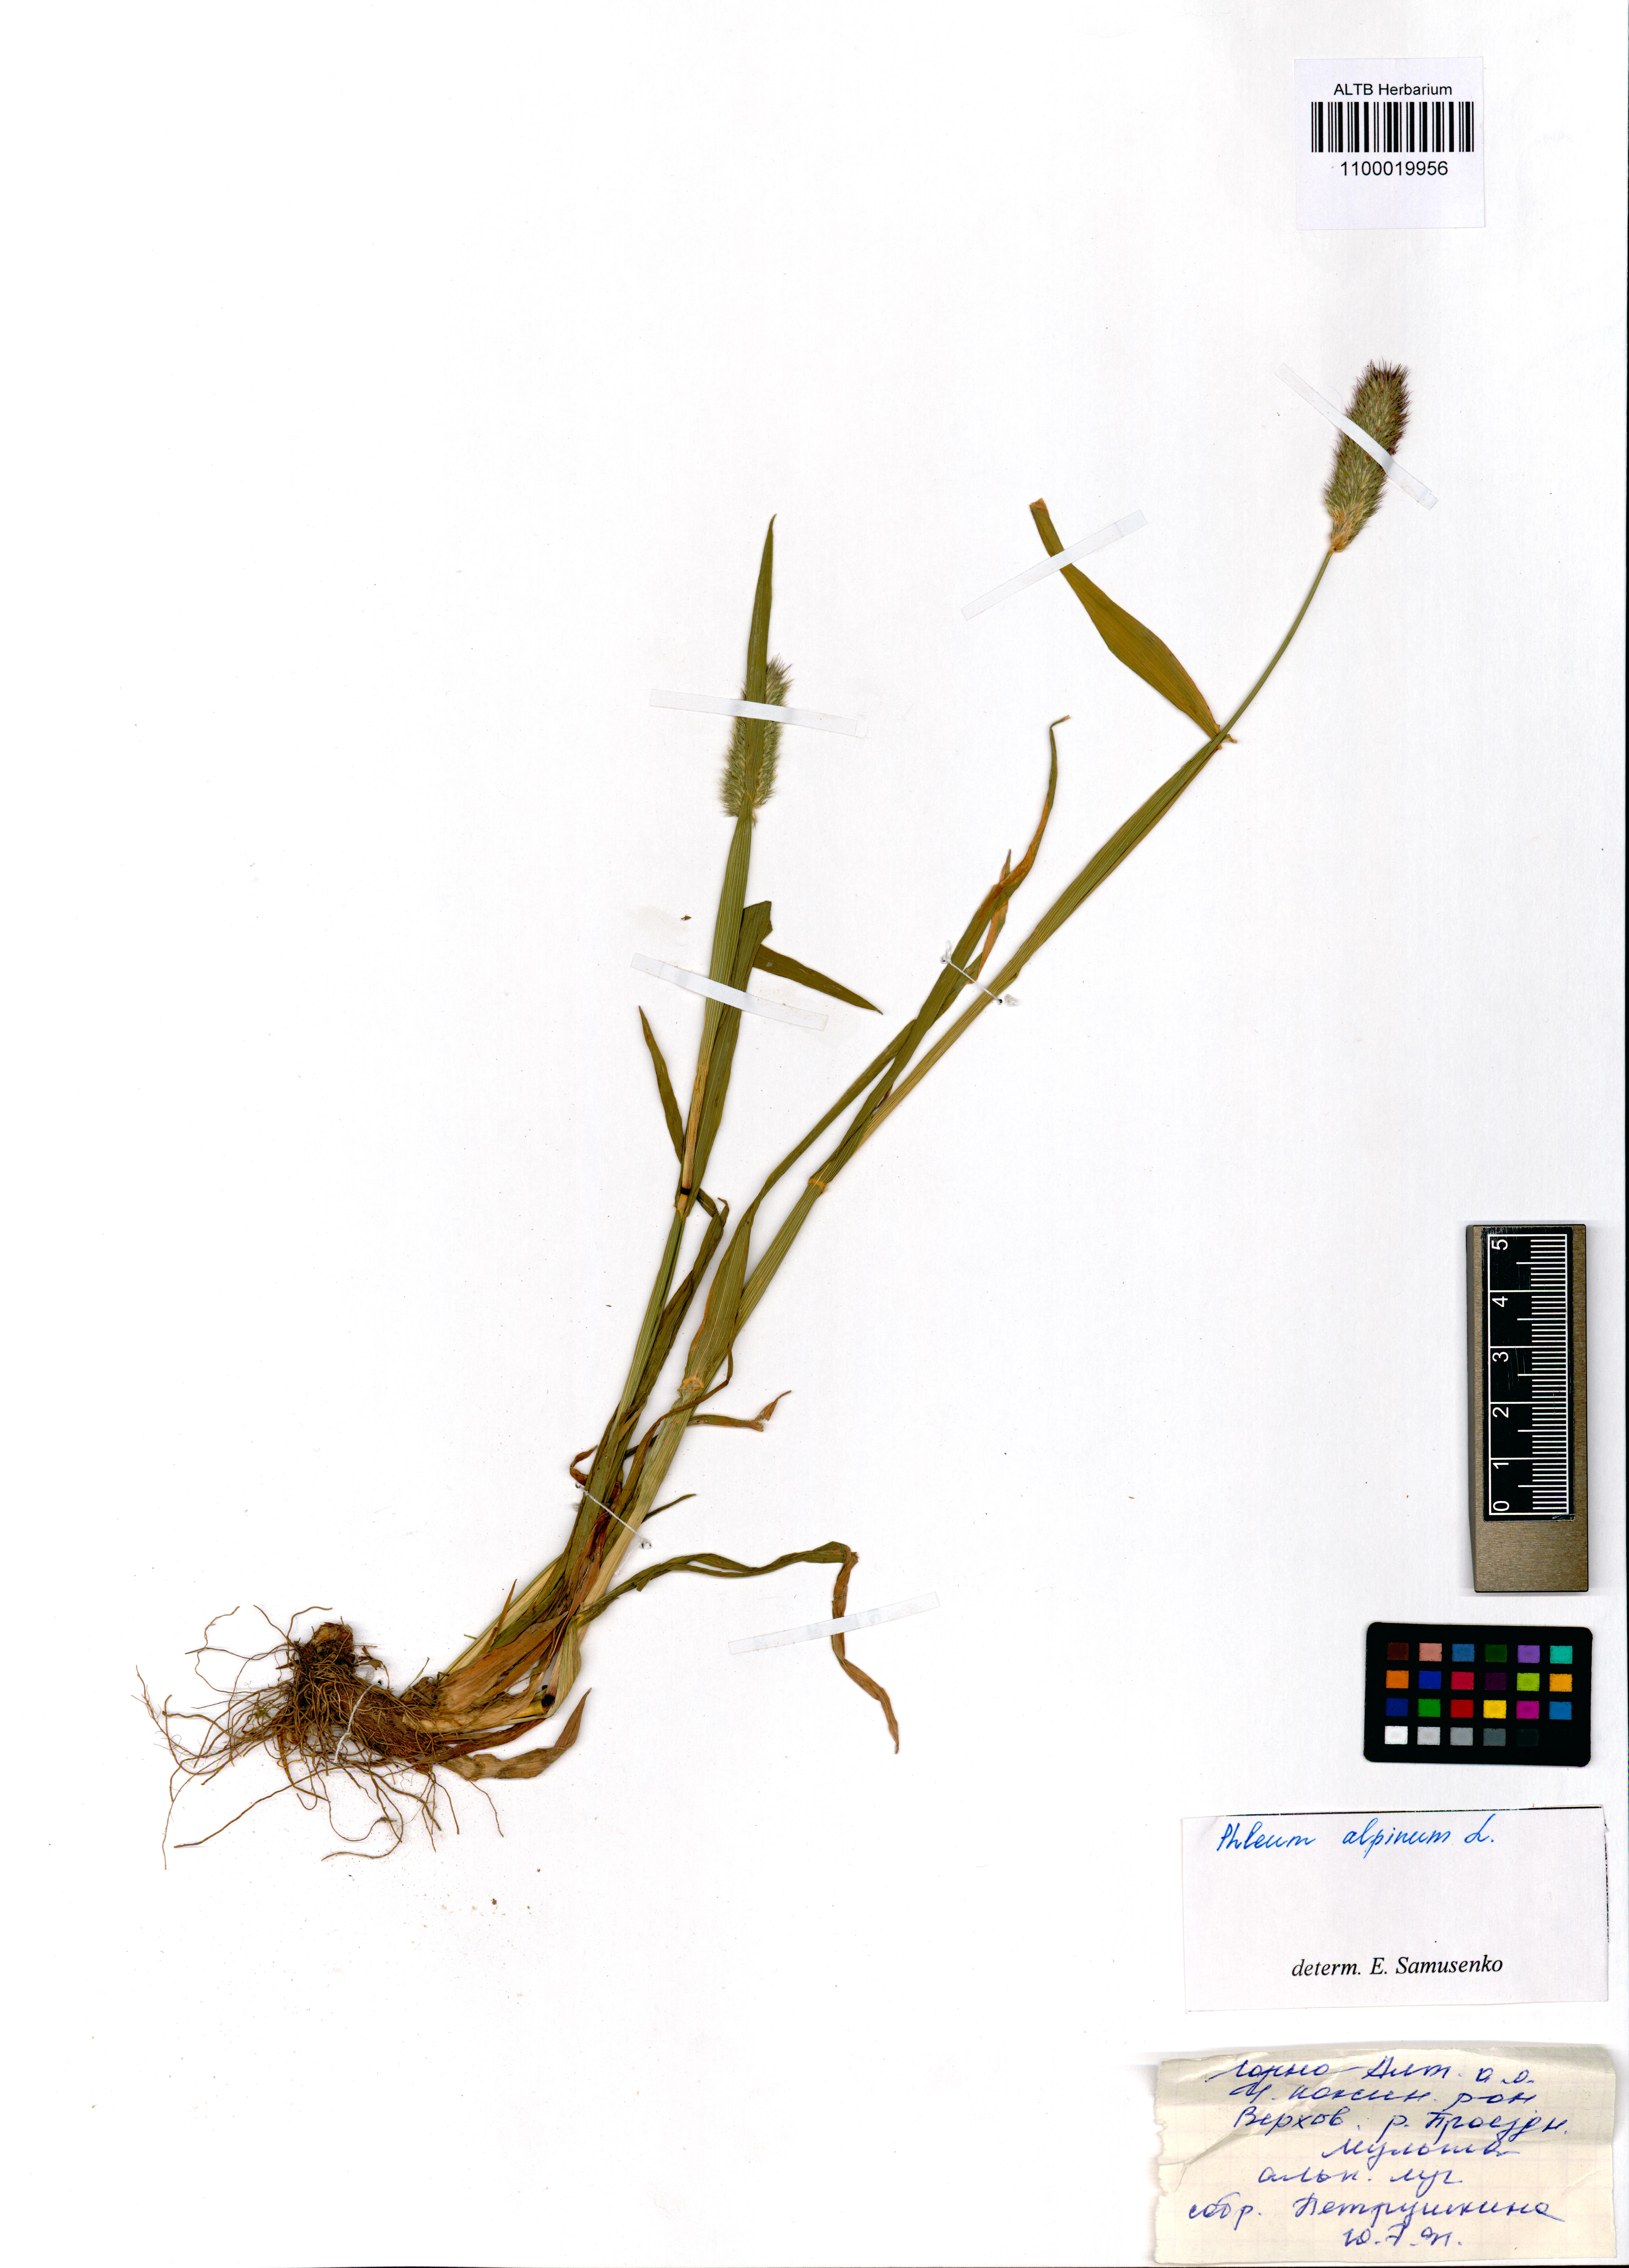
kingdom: Plantae
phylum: Tracheophyta
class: Liliopsida
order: Poales
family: Poaceae
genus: Phleum
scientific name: Phleum alpinum
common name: Alpine cat's-tail
